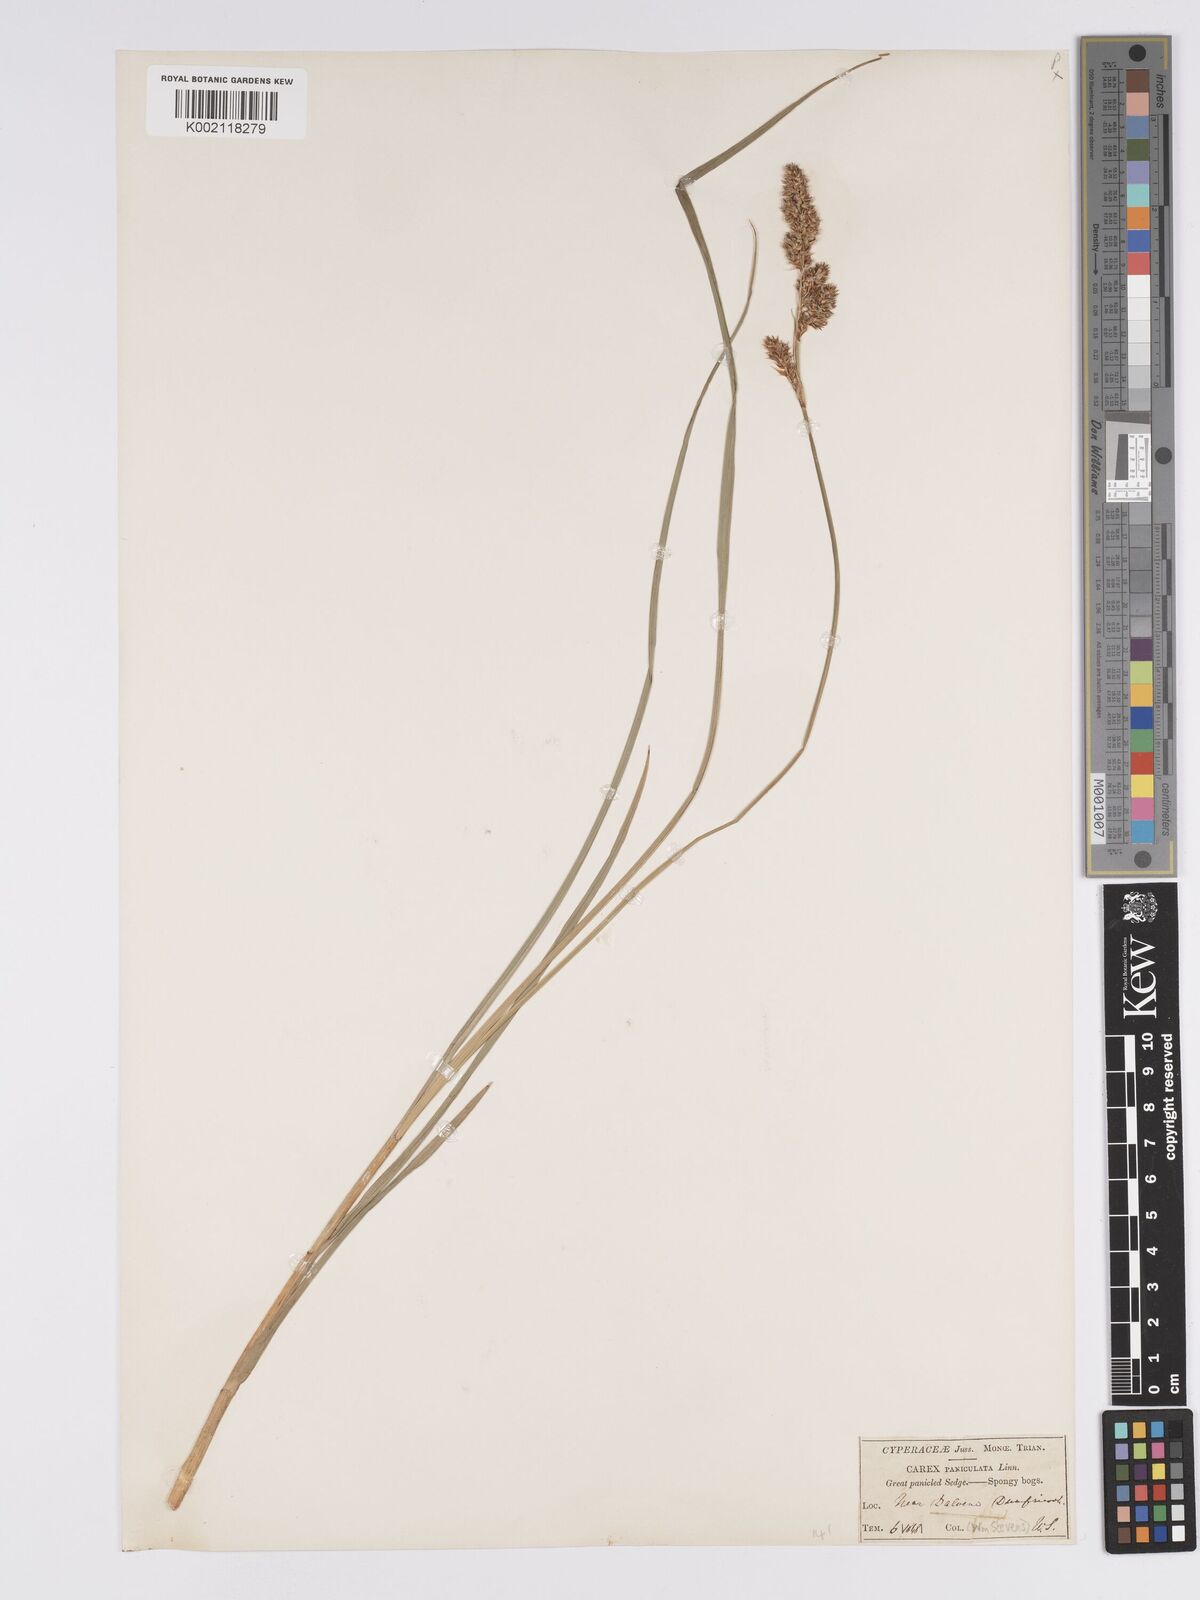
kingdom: Plantae
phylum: Tracheophyta
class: Liliopsida
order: Poales
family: Cyperaceae
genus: Carex
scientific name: Carex paniculata
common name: Greater tussock-sedge
